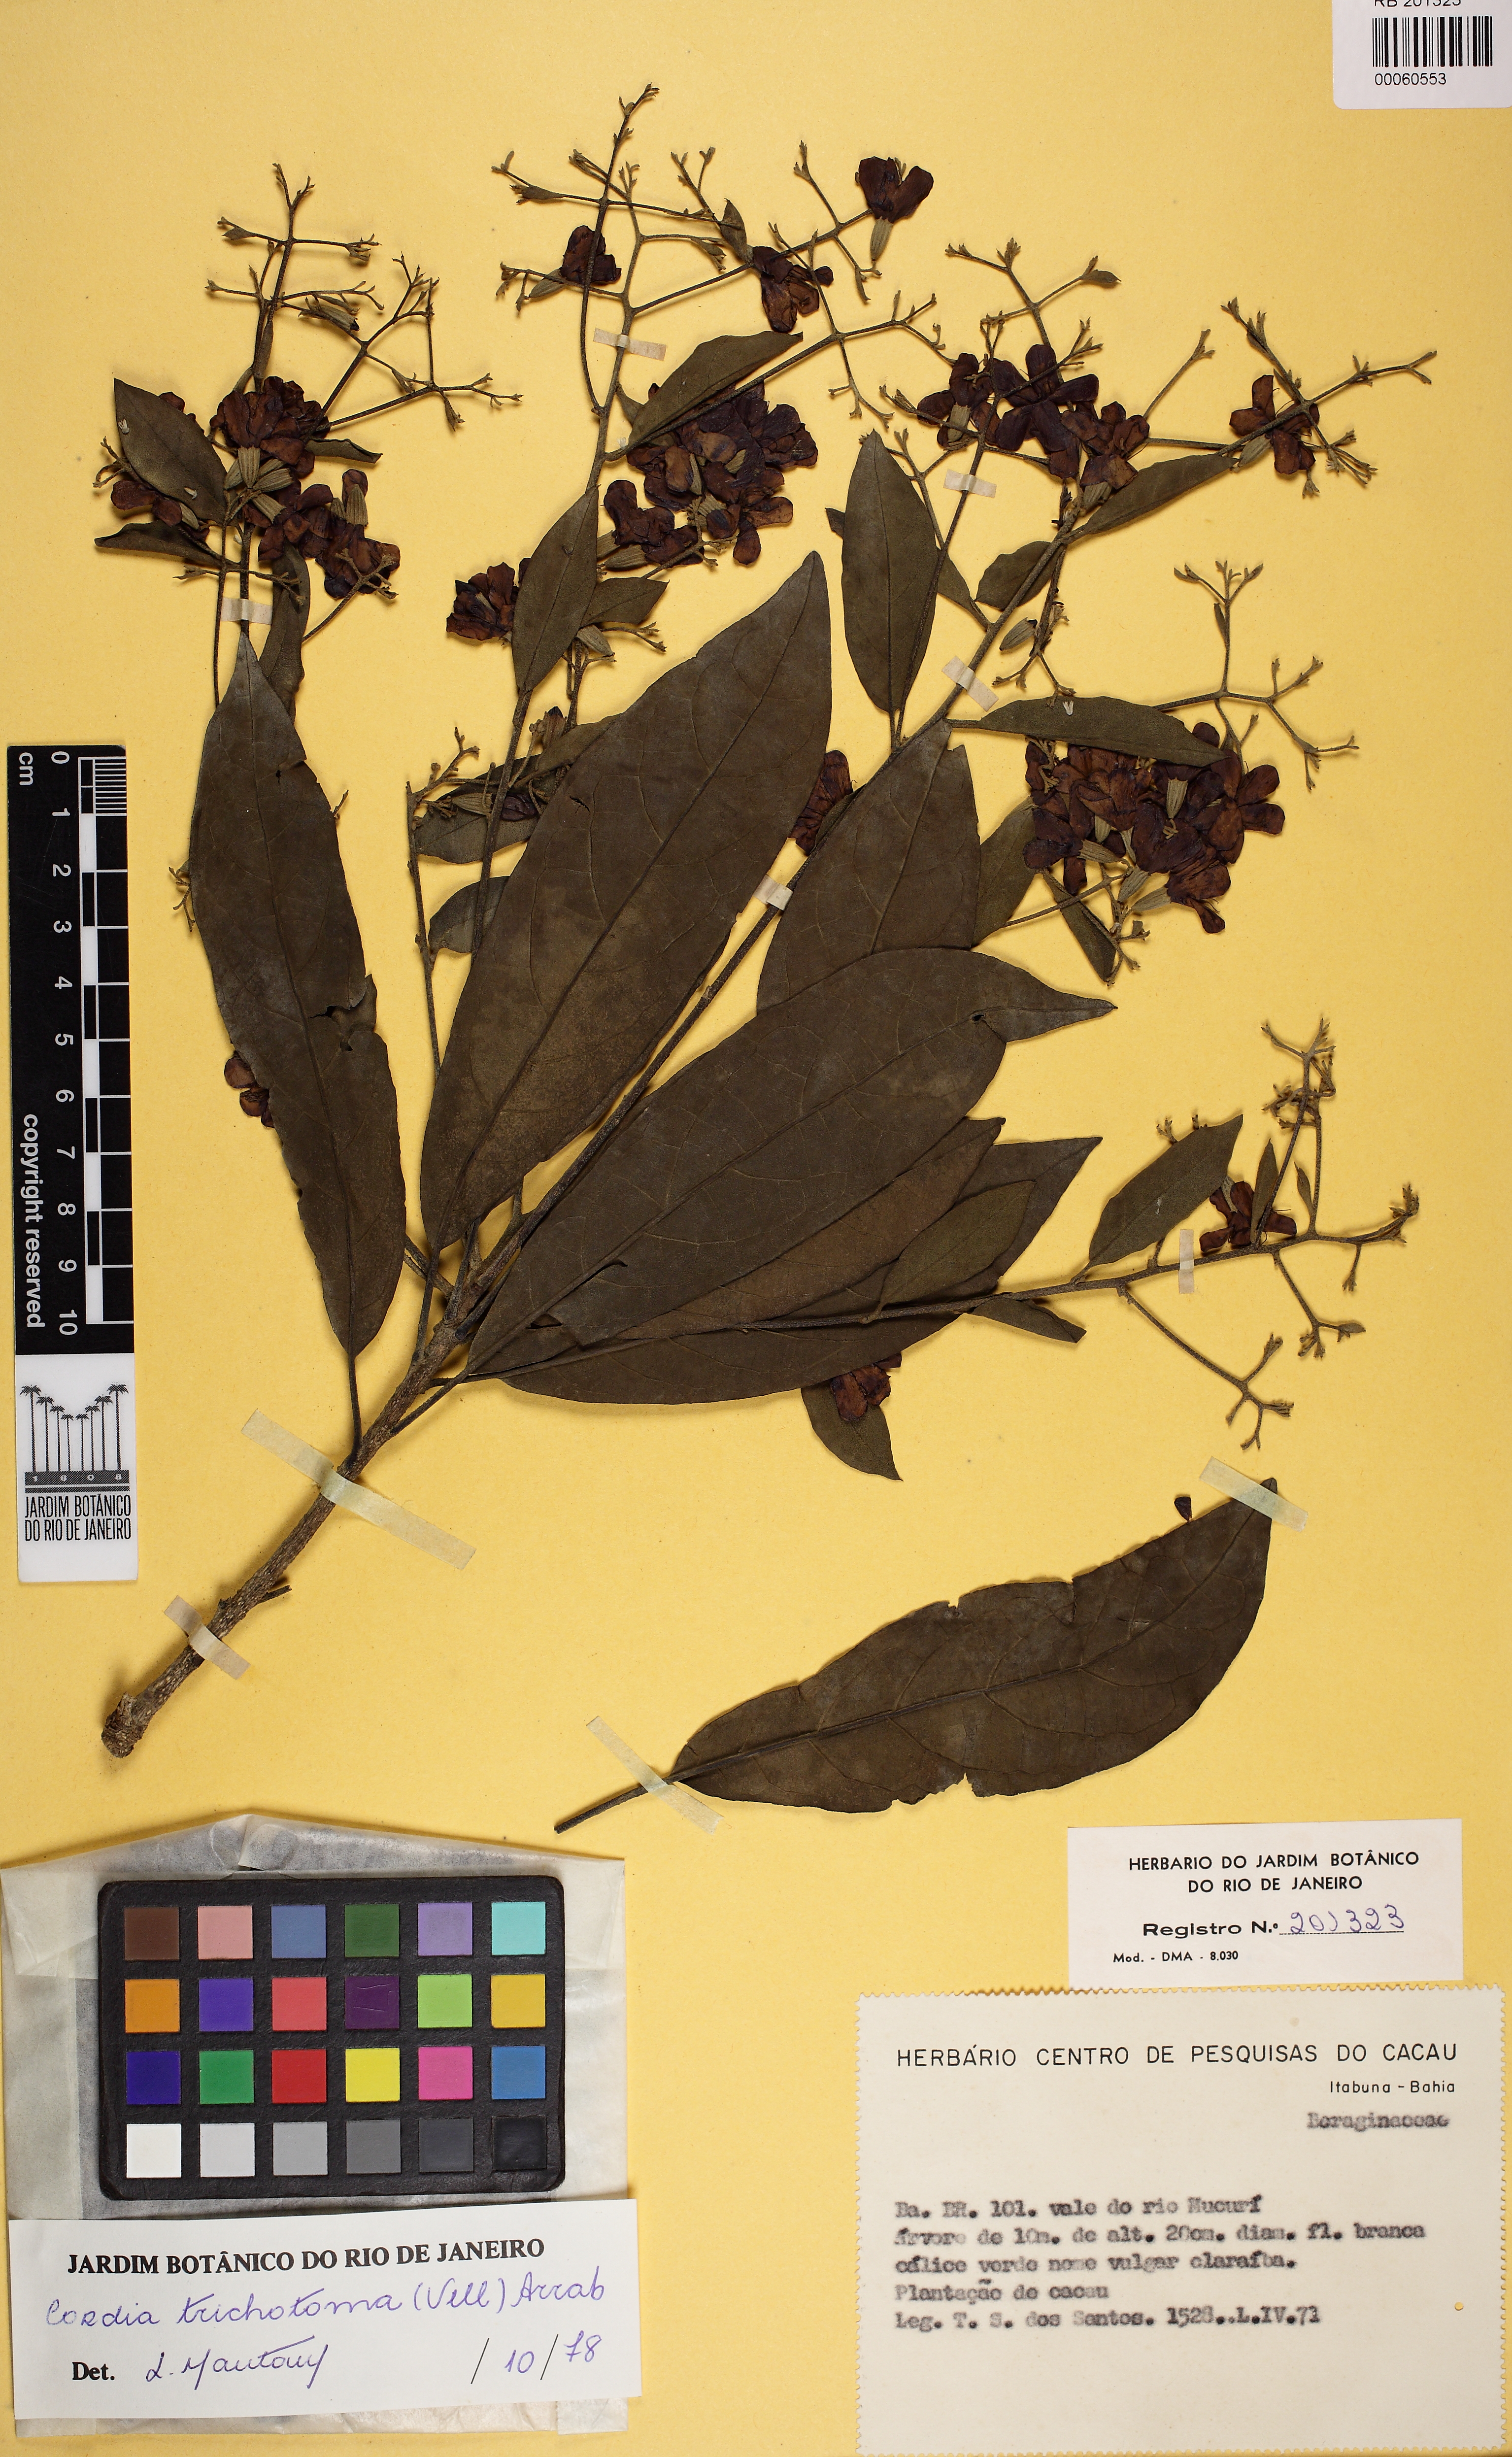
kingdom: Plantae
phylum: Tracheophyta
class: Magnoliopsida
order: Boraginales
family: Cordiaceae
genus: Cordia
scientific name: Cordia trichotoma
